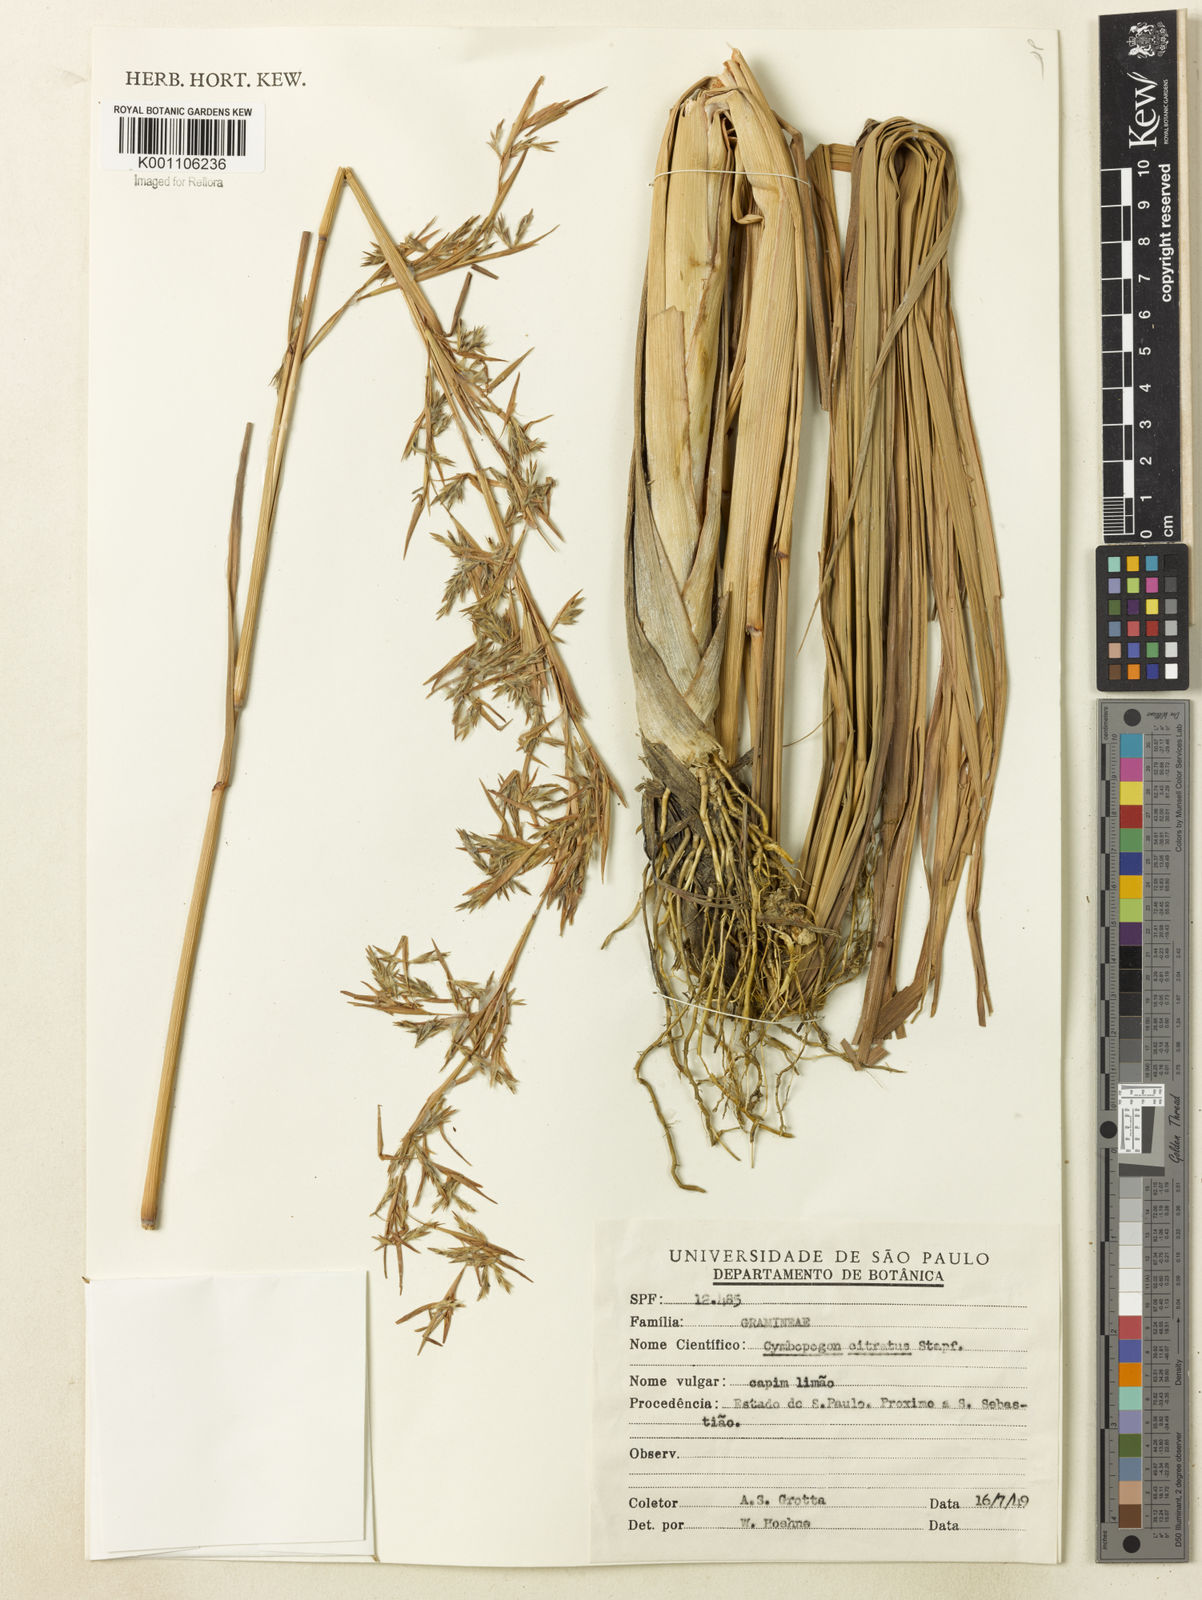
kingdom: Plantae
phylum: Tracheophyta
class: Liliopsida
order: Poales
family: Poaceae
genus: Cymbopogon
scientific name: Cymbopogon citratus
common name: Lemon grass
